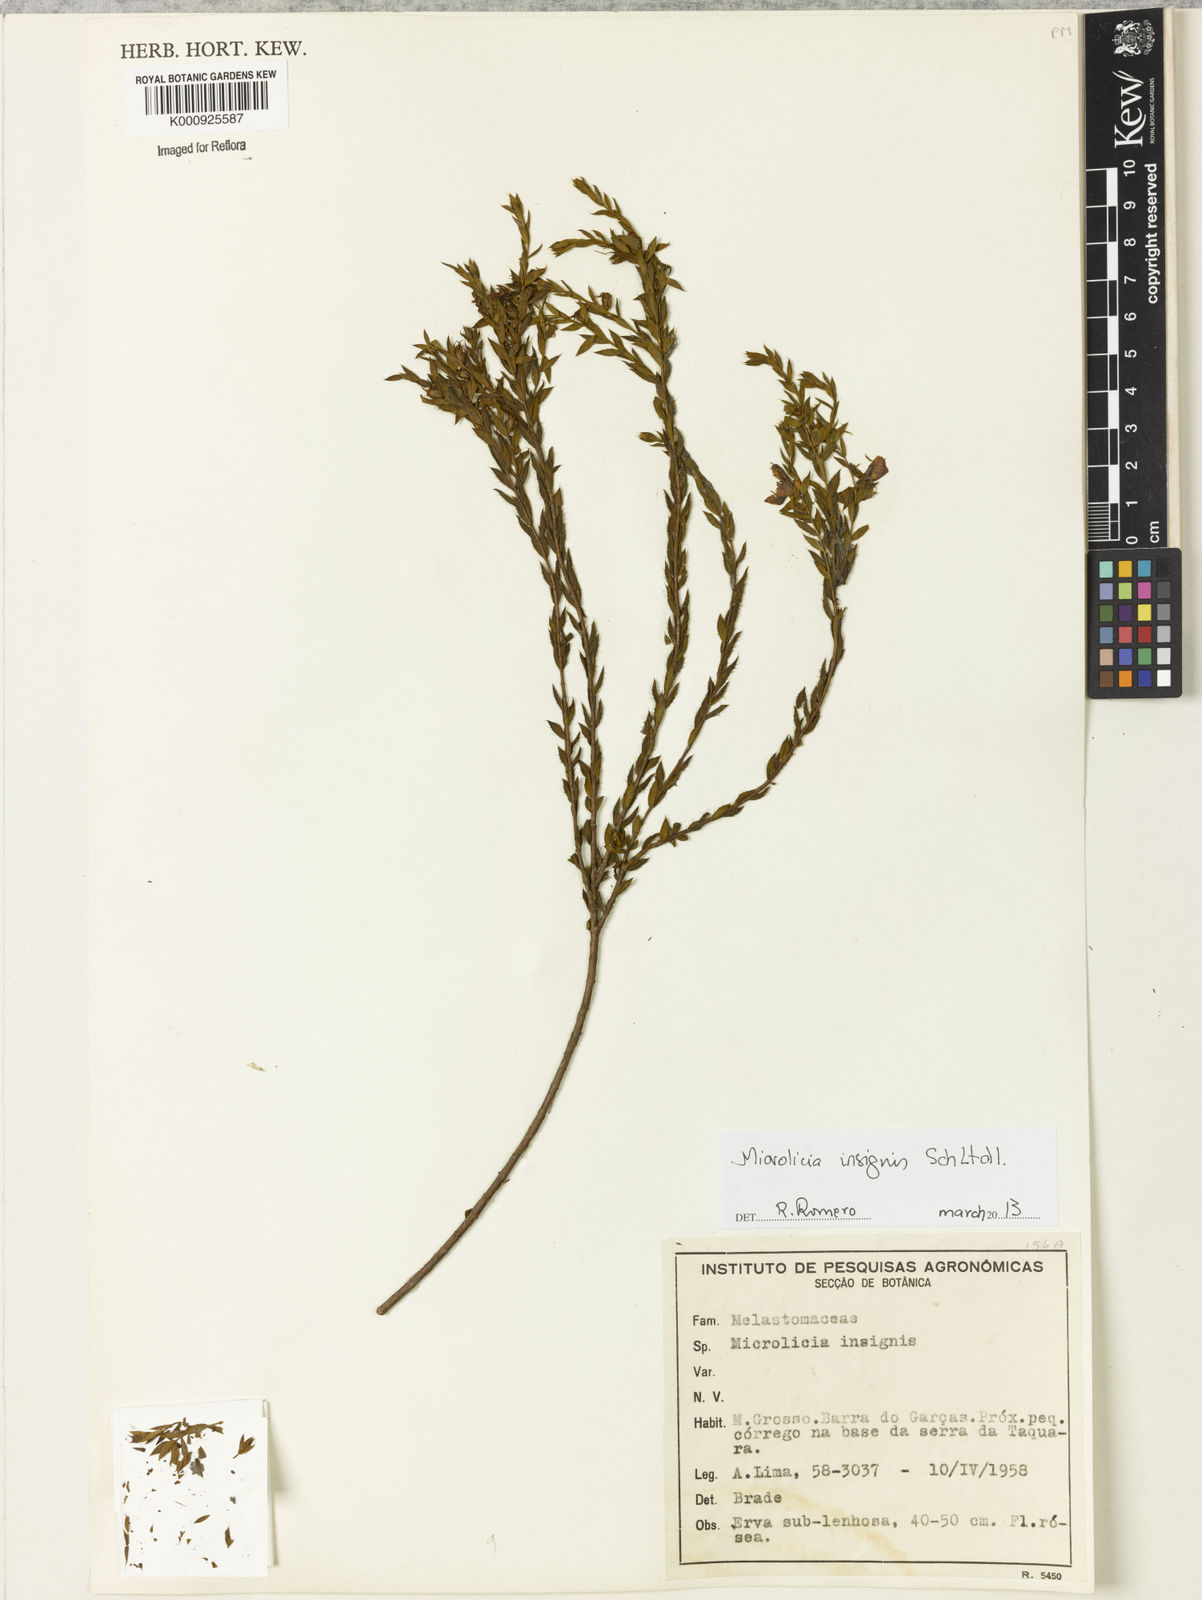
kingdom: Plantae
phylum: Tracheophyta
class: Magnoliopsida
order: Myrtales
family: Melastomataceae
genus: Microlicia
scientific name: Microlicia
